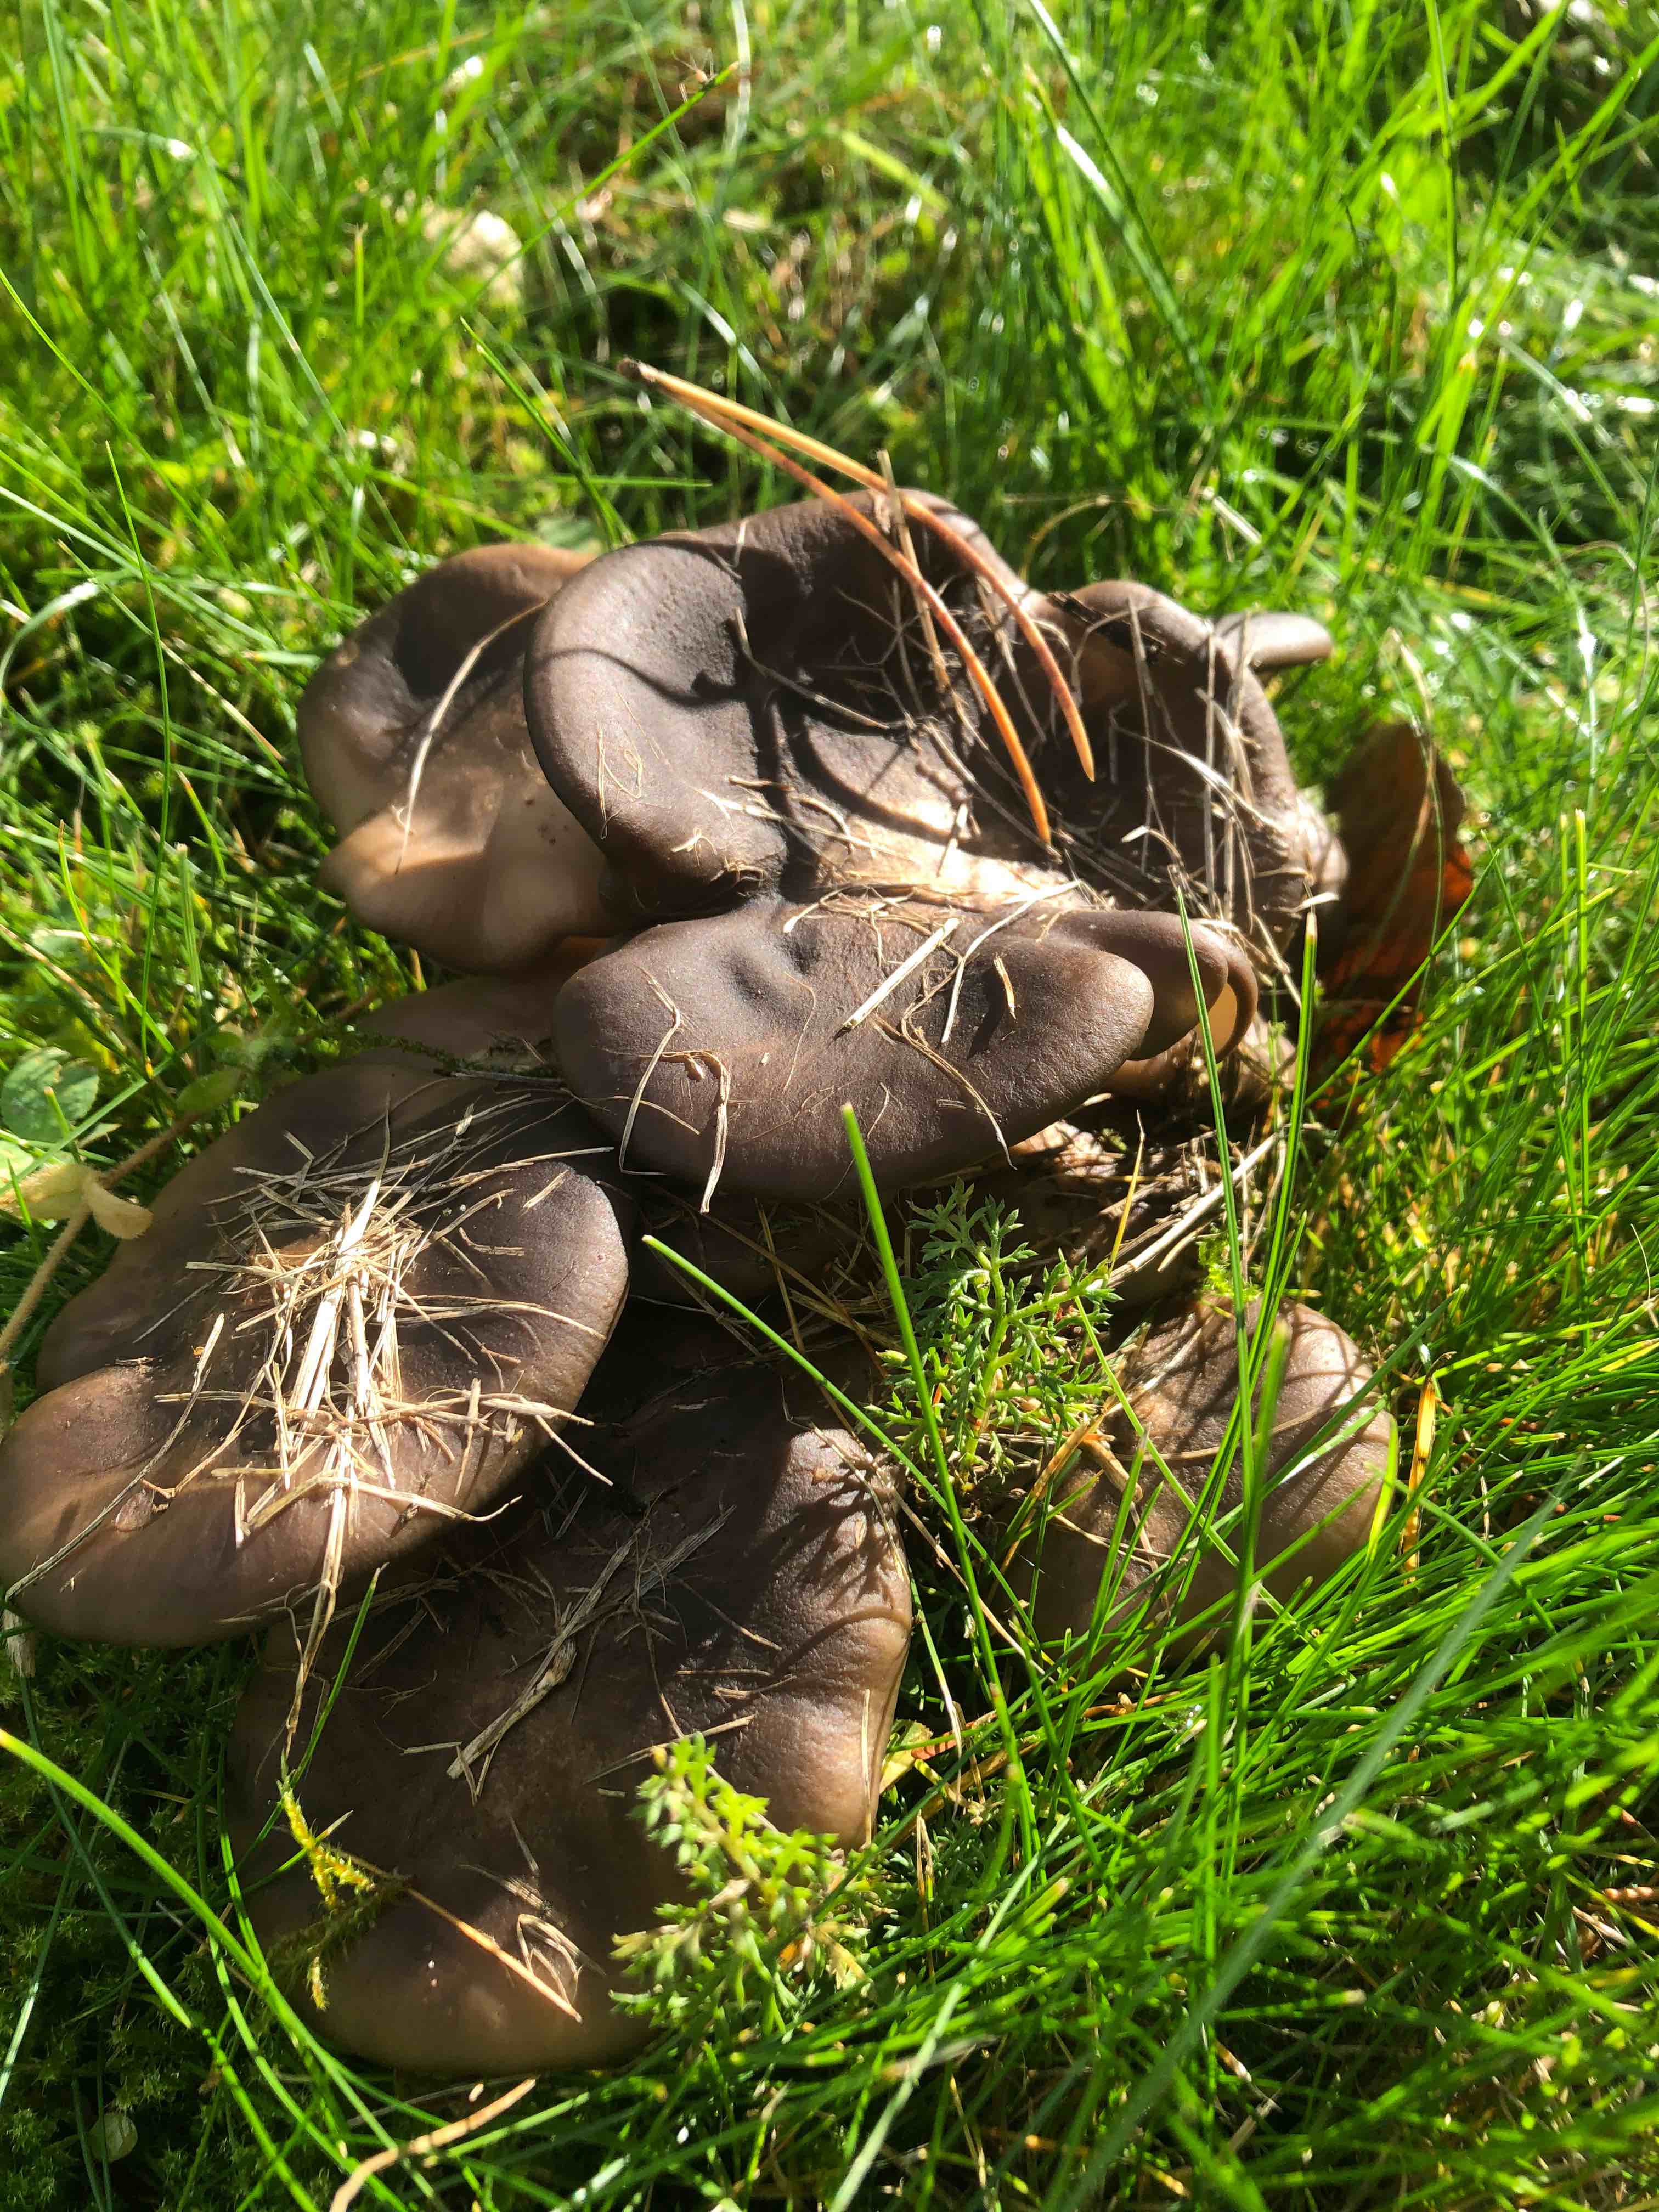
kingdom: Fungi
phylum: Basidiomycota
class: Agaricomycetes
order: Agaricales
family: Lyophyllaceae
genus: Lyophyllum
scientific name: Lyophyllum
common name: gråblad
